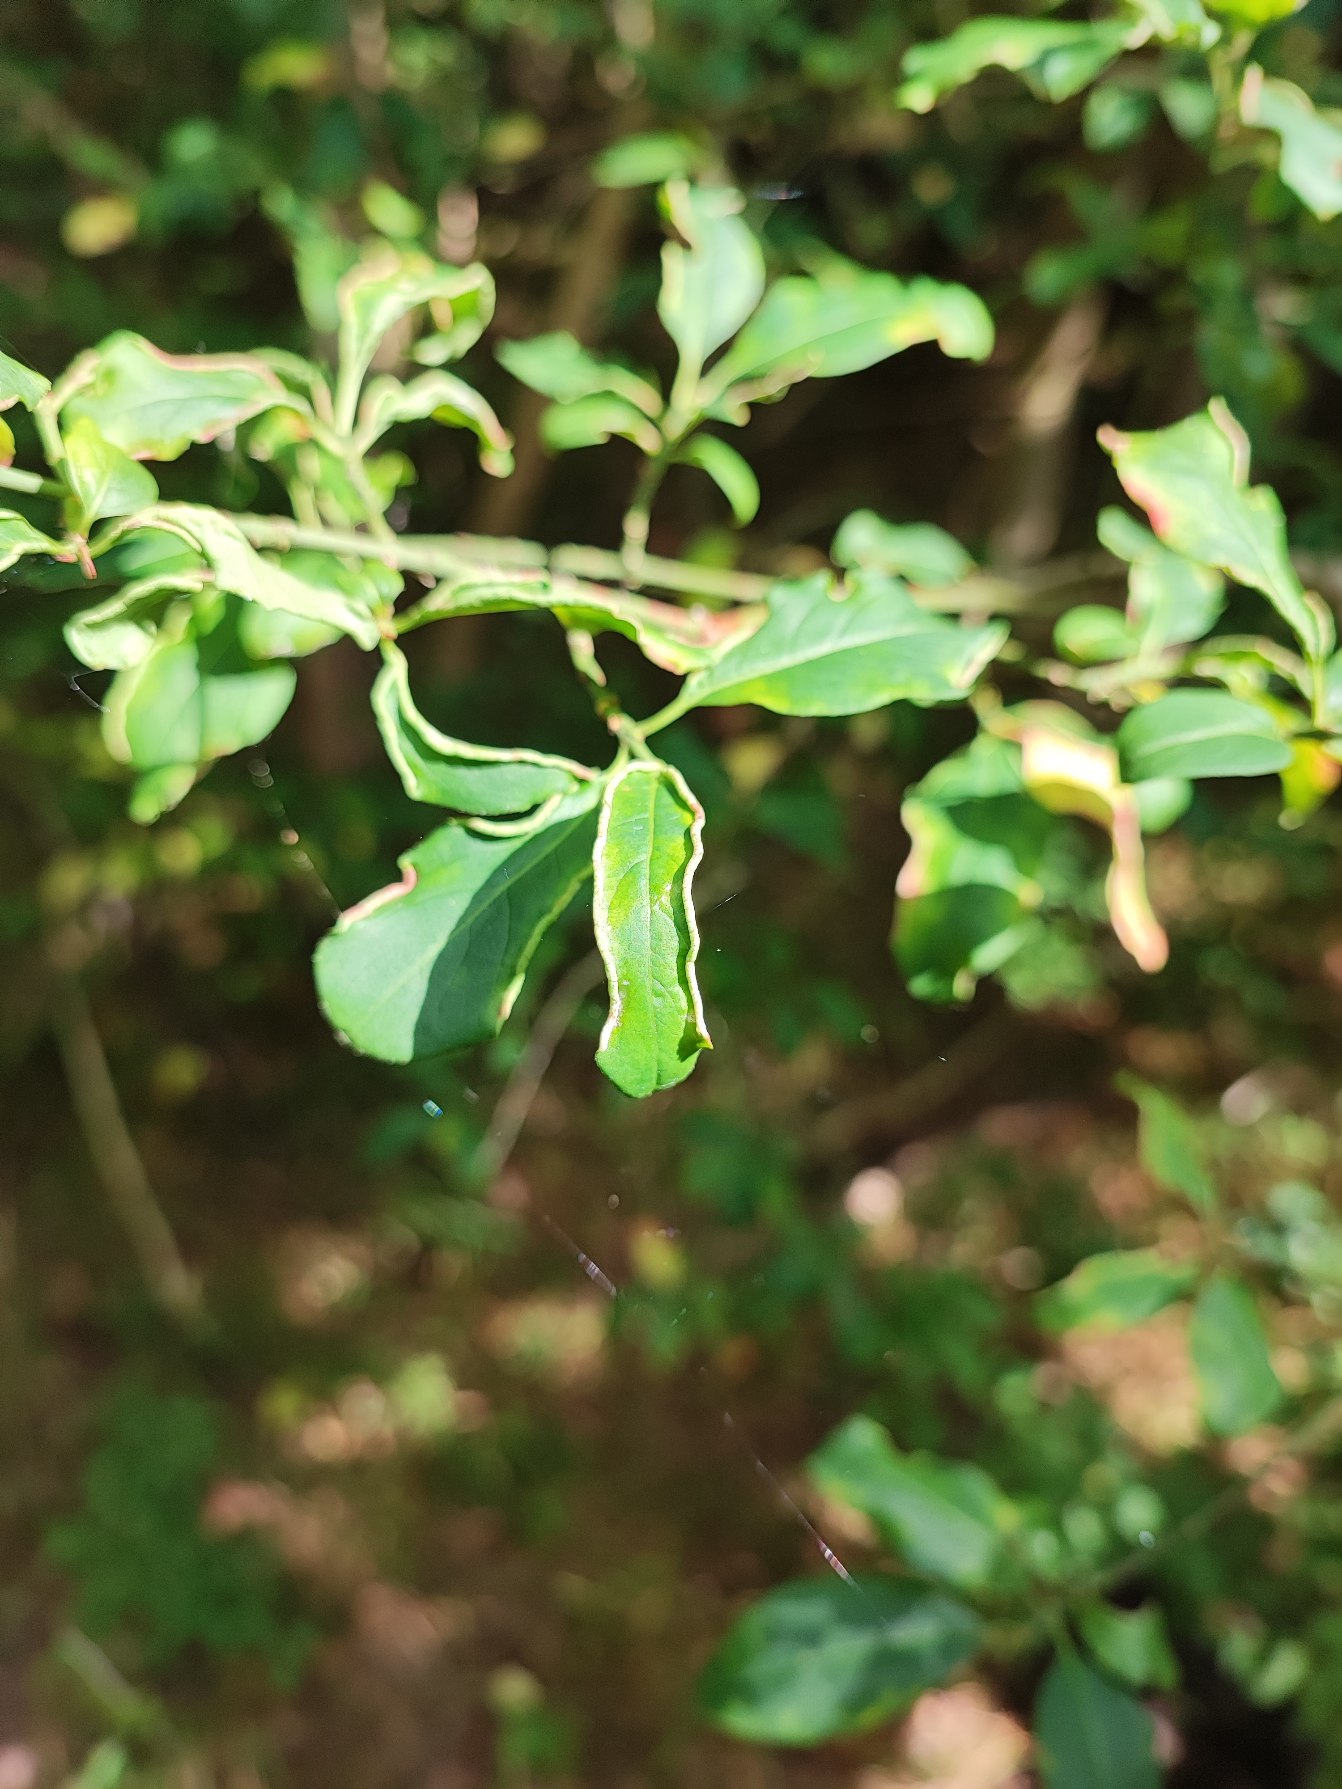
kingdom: Animalia
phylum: Arthropoda
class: Arachnida
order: Trombidiformes
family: Eriophyidae
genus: Stenacis
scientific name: Stenacis evonymi
